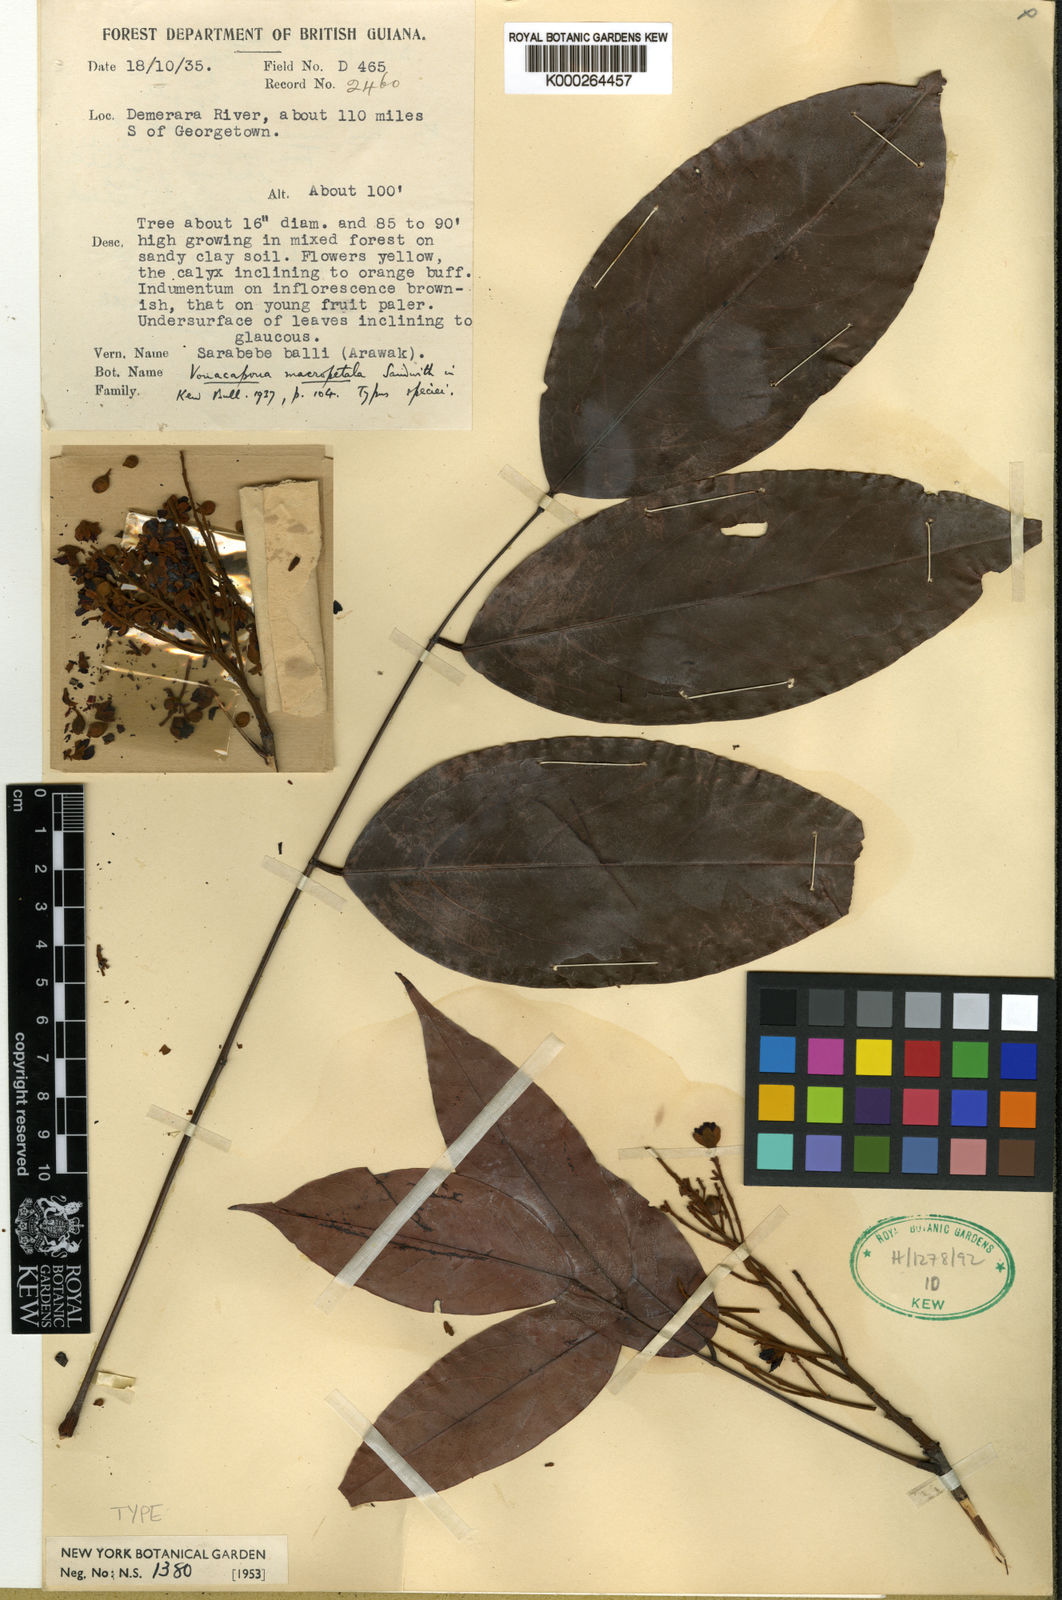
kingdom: Plantae
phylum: Tracheophyta
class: Magnoliopsida
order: Fabales
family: Fabaceae
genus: Vouacapoua
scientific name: Vouacapoua macropetala
